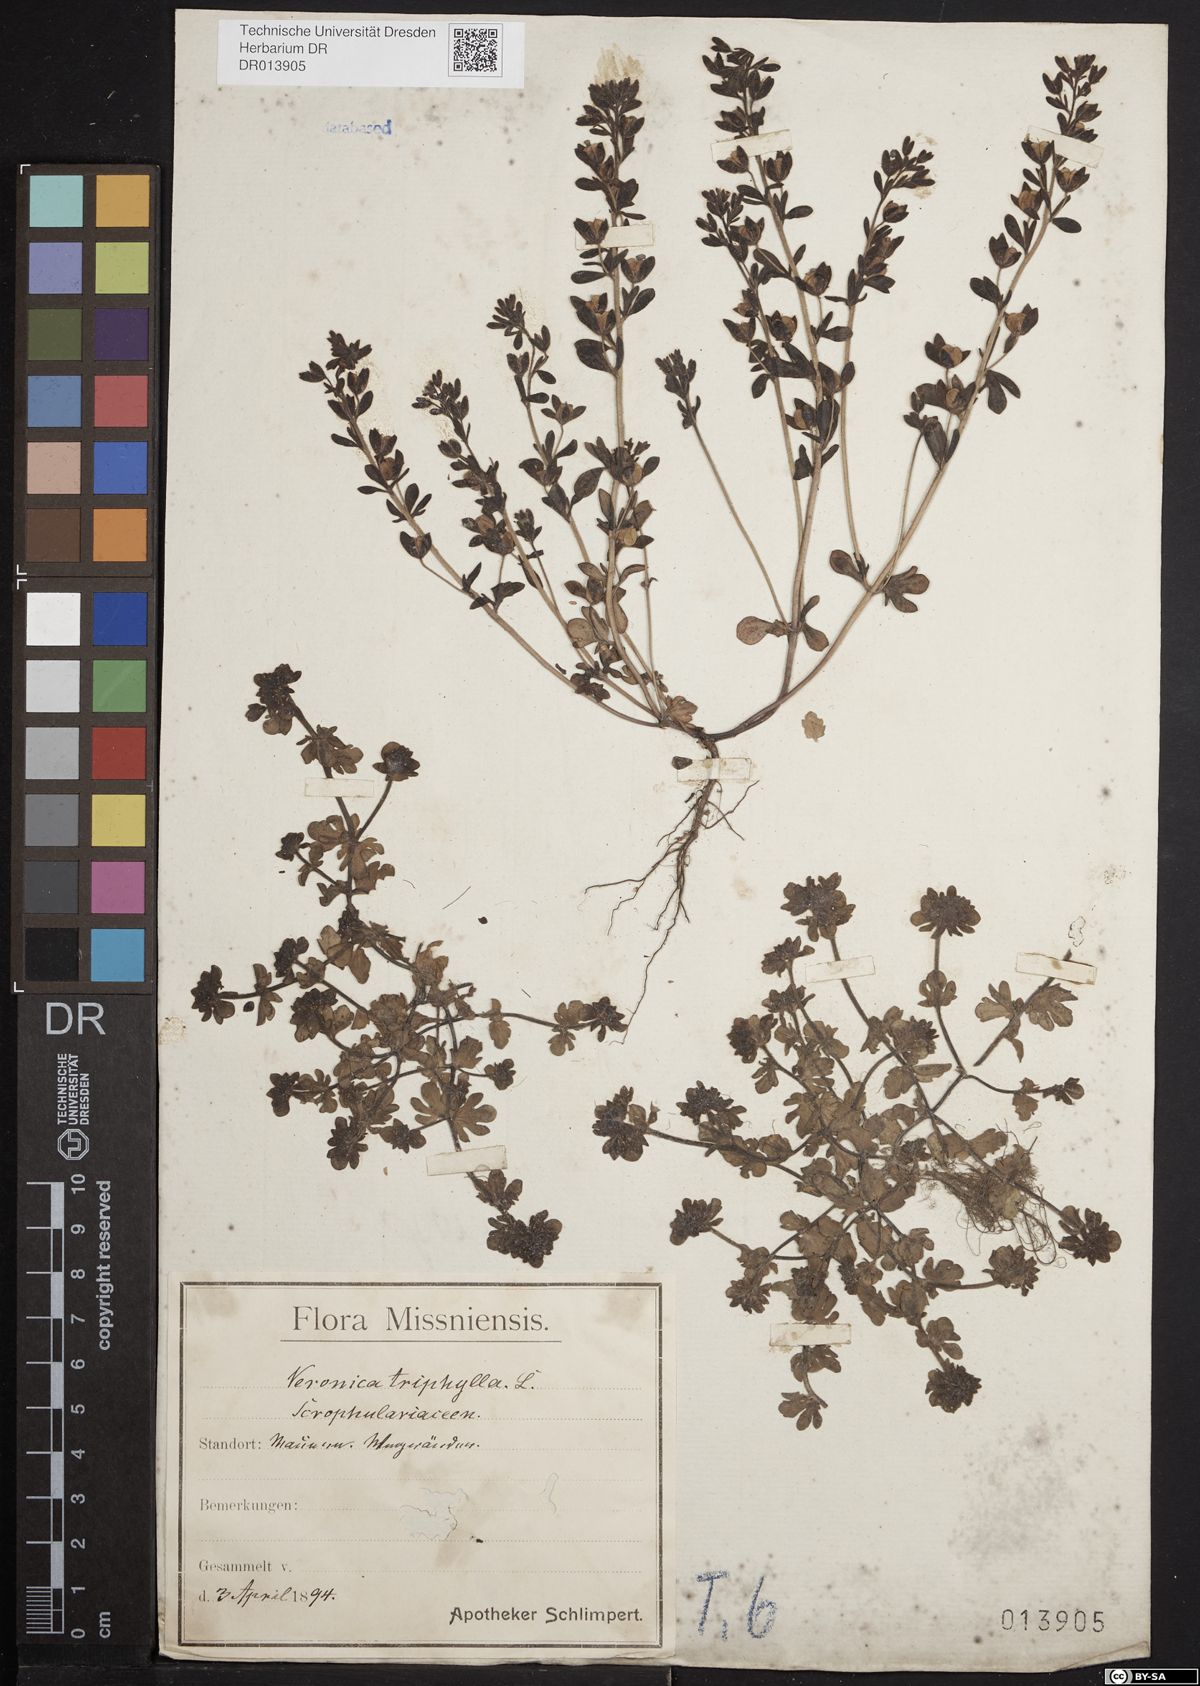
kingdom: Plantae
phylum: Tracheophyta
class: Magnoliopsida
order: Lamiales
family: Plantaginaceae
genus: Veronica
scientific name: Veronica triphyllos
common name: Fingered speedwell
